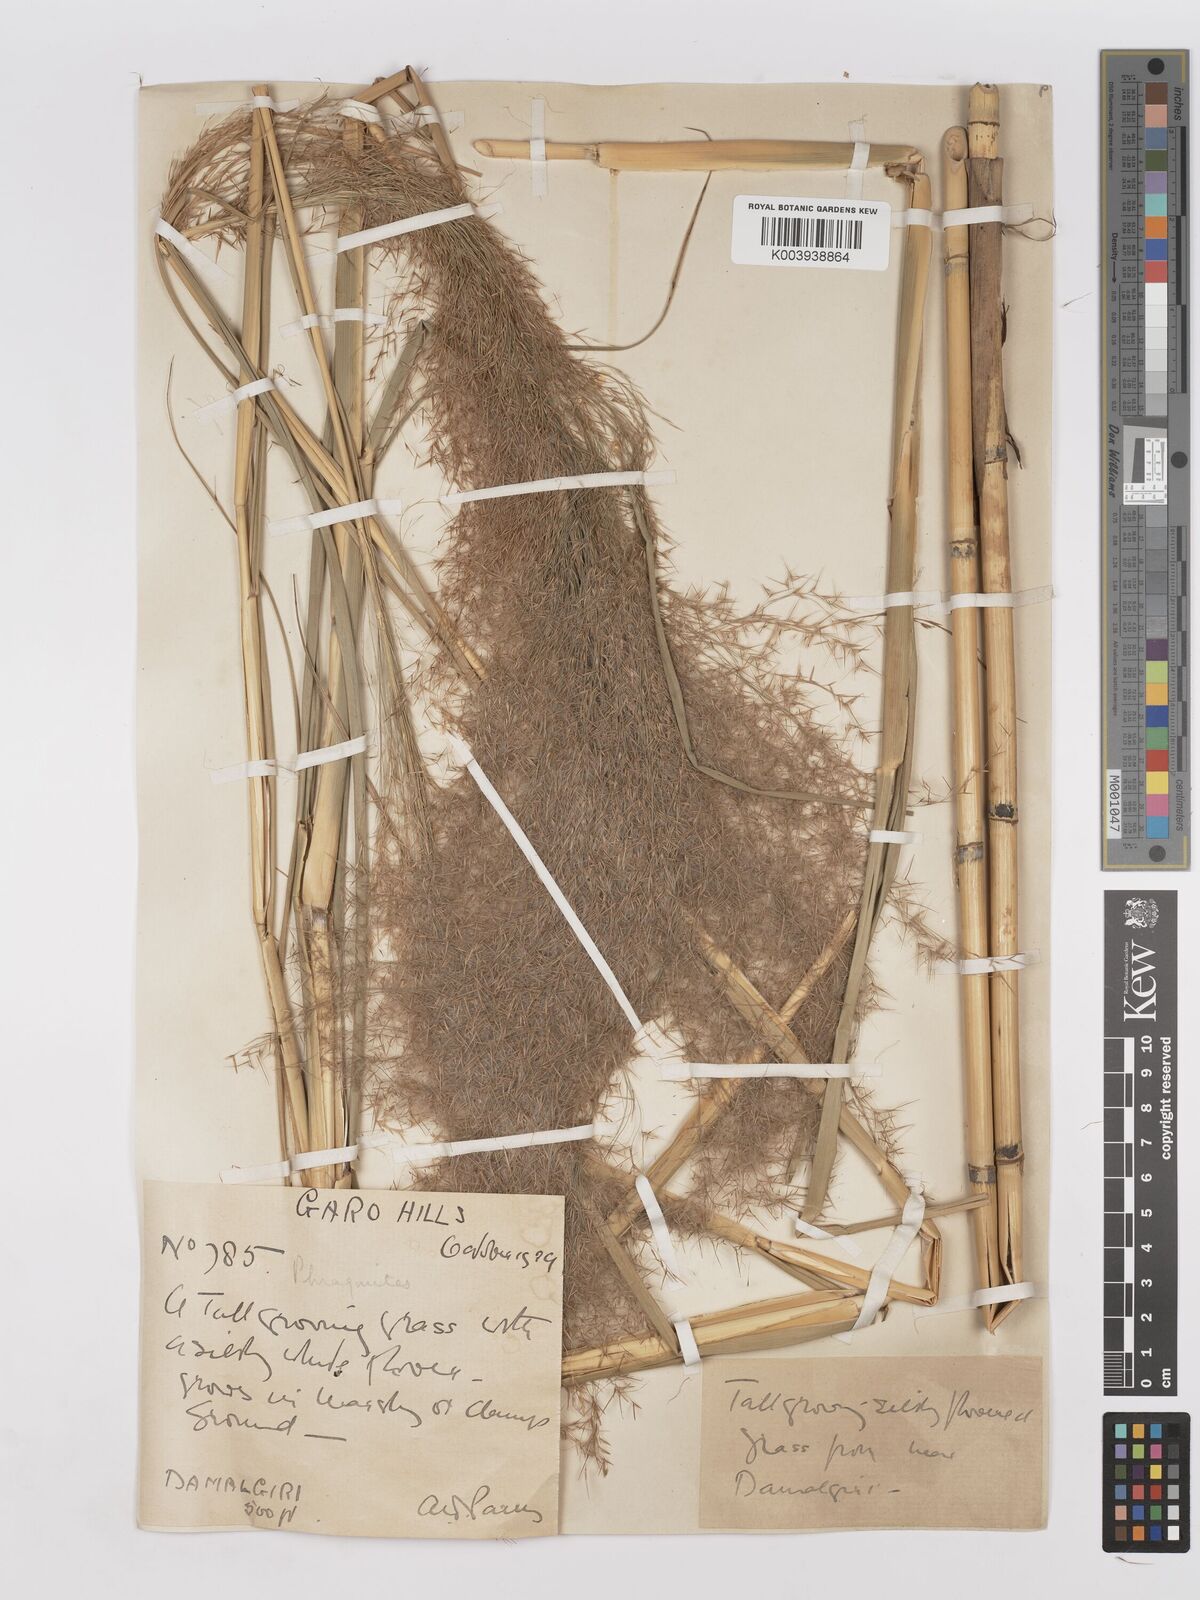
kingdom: Plantae
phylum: Tracheophyta
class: Liliopsida
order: Poales
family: Poaceae
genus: Phragmites
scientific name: Phragmites karka
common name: Tropical reed
